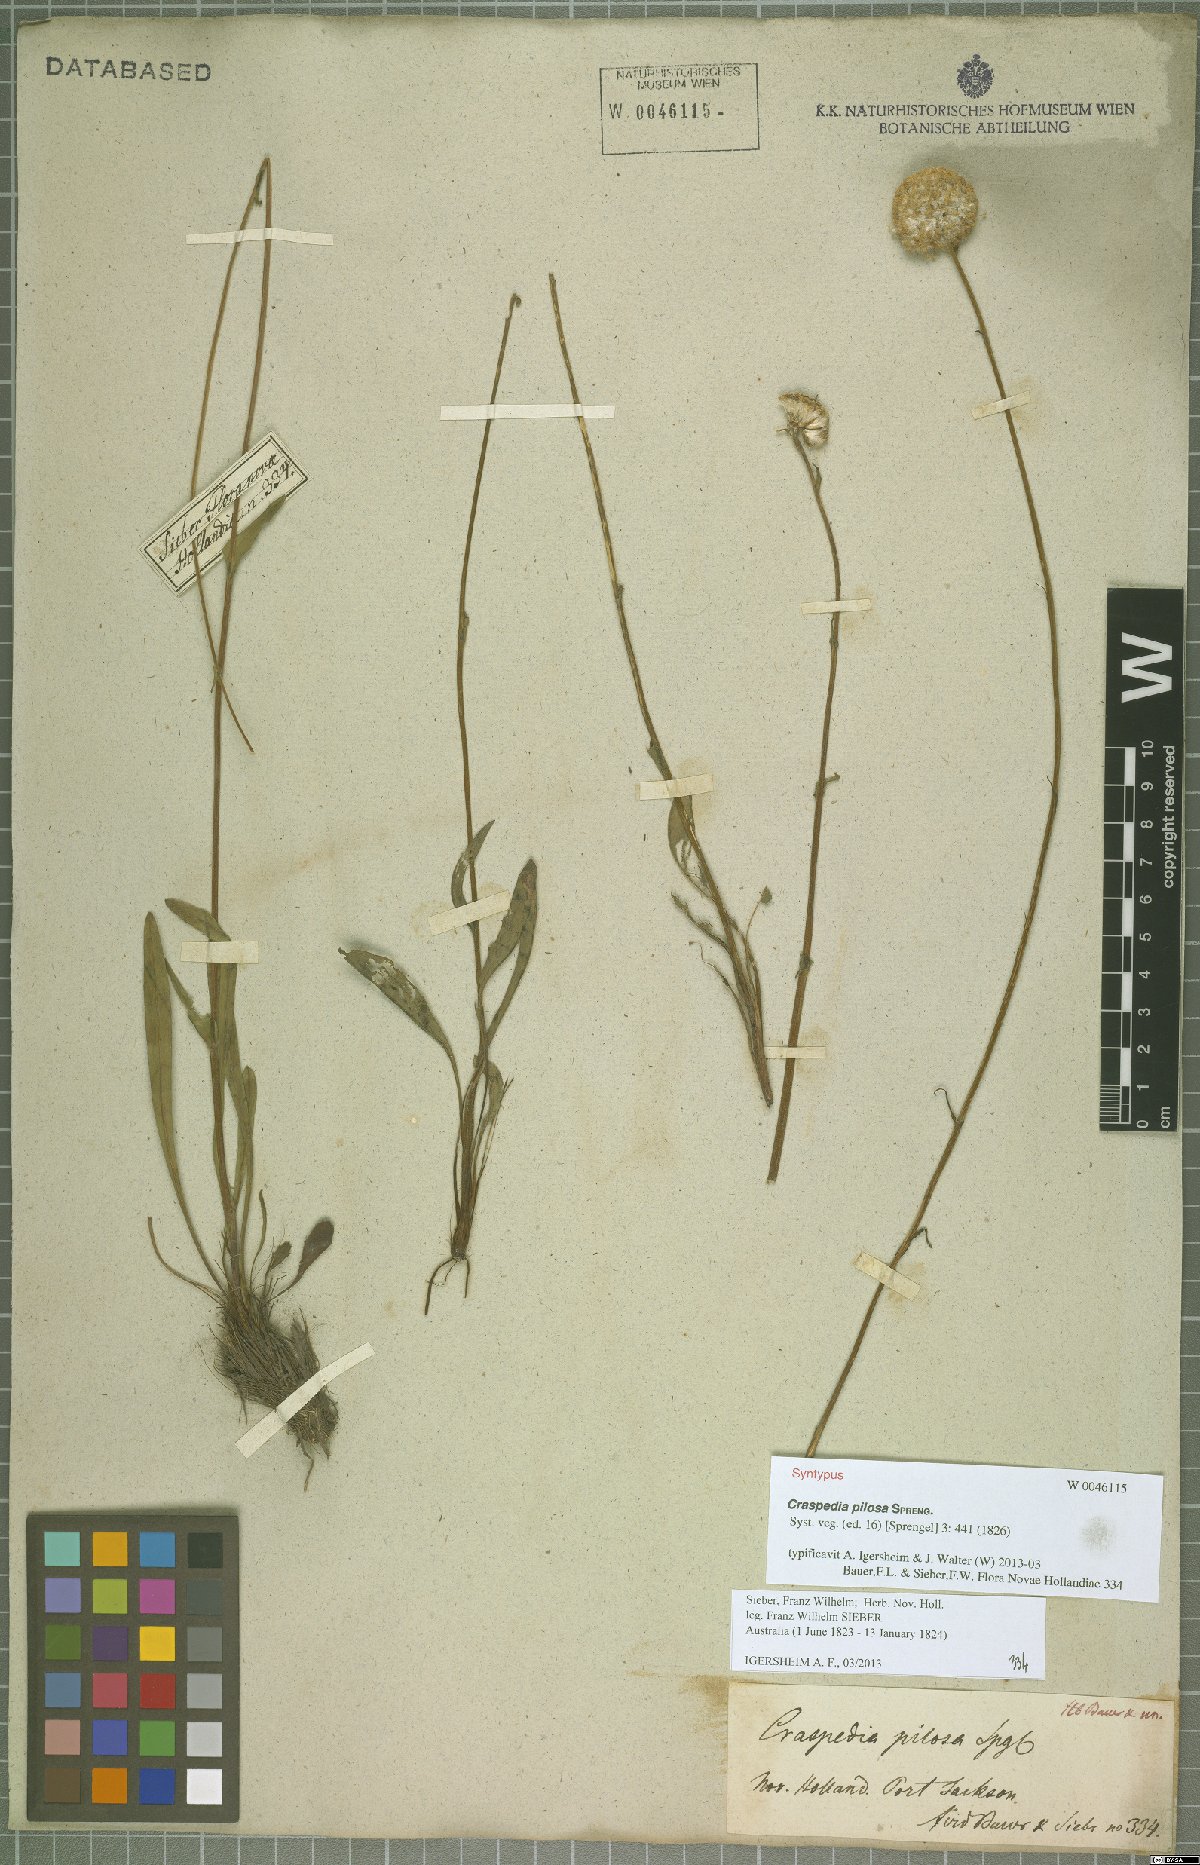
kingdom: Plantae
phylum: Tracheophyta
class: Magnoliopsida
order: Asterales
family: Asteraceae
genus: Craspedia
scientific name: Craspedia pilosa
